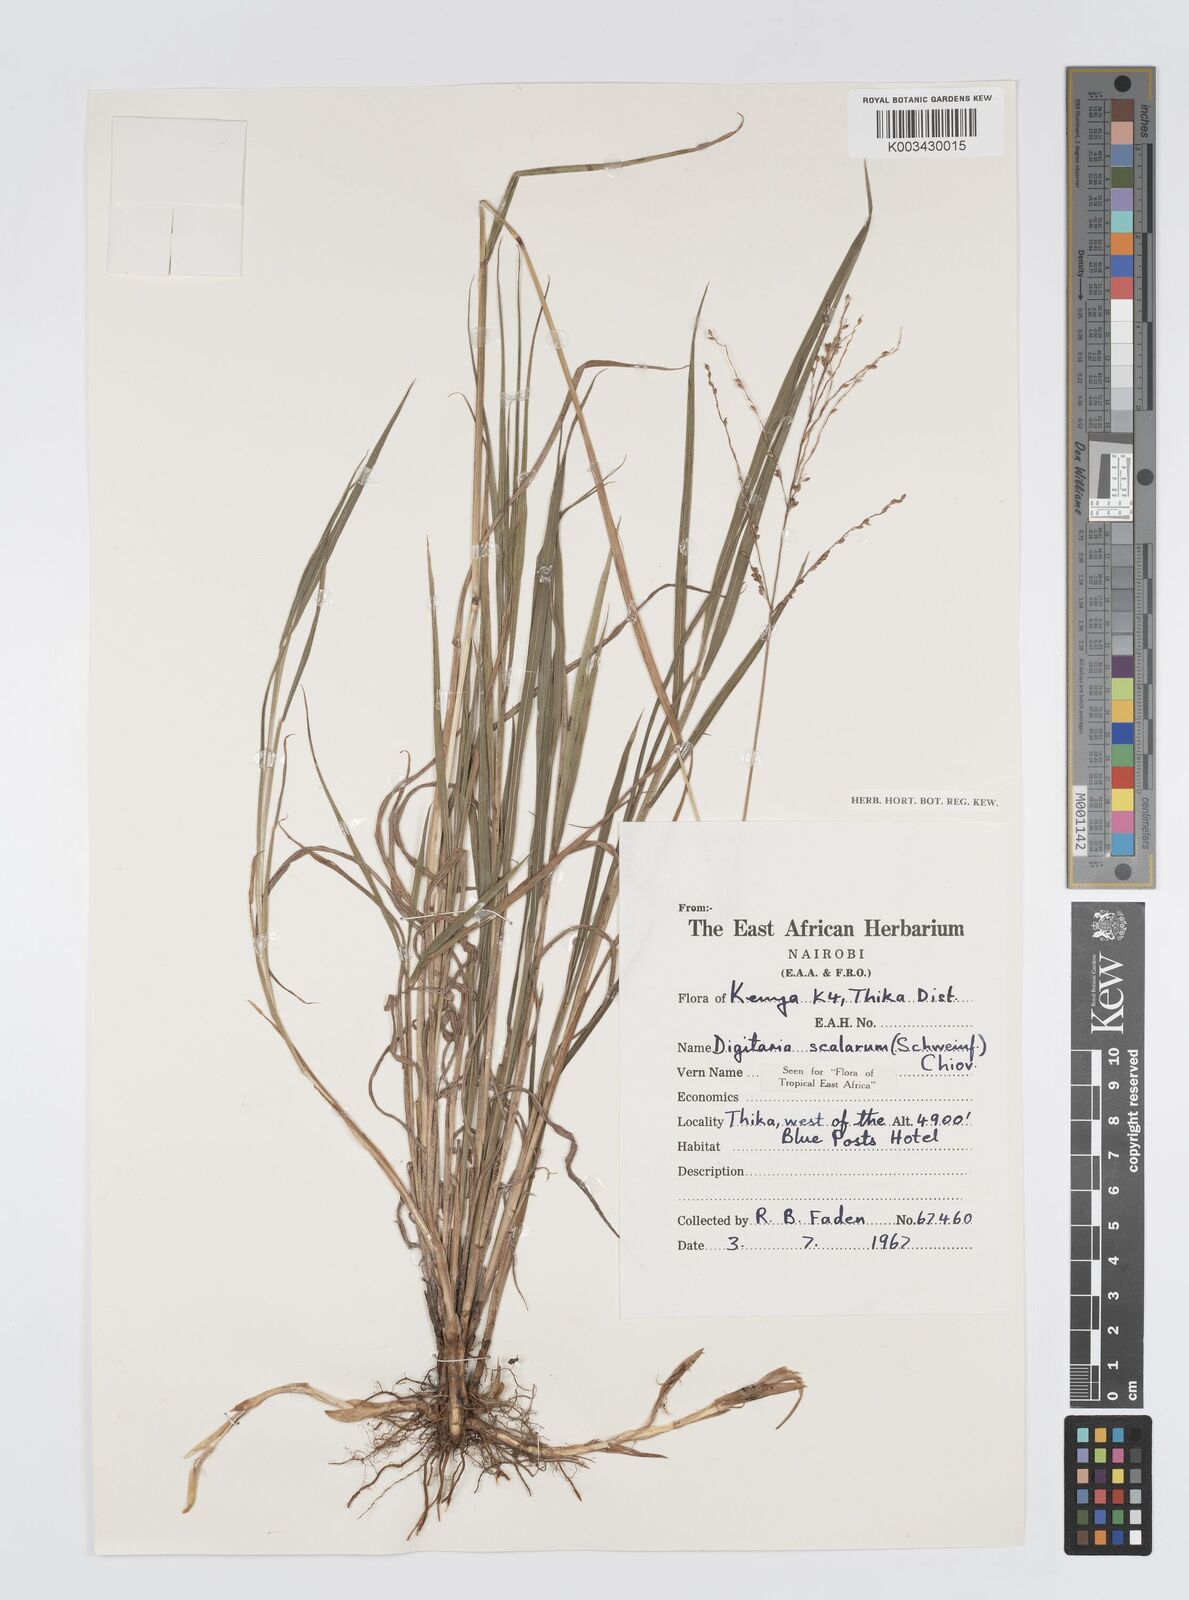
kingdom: Plantae
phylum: Tracheophyta
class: Liliopsida
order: Poales
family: Poaceae
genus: Digitaria
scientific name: Digitaria abyssinica
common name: African couchgrass
